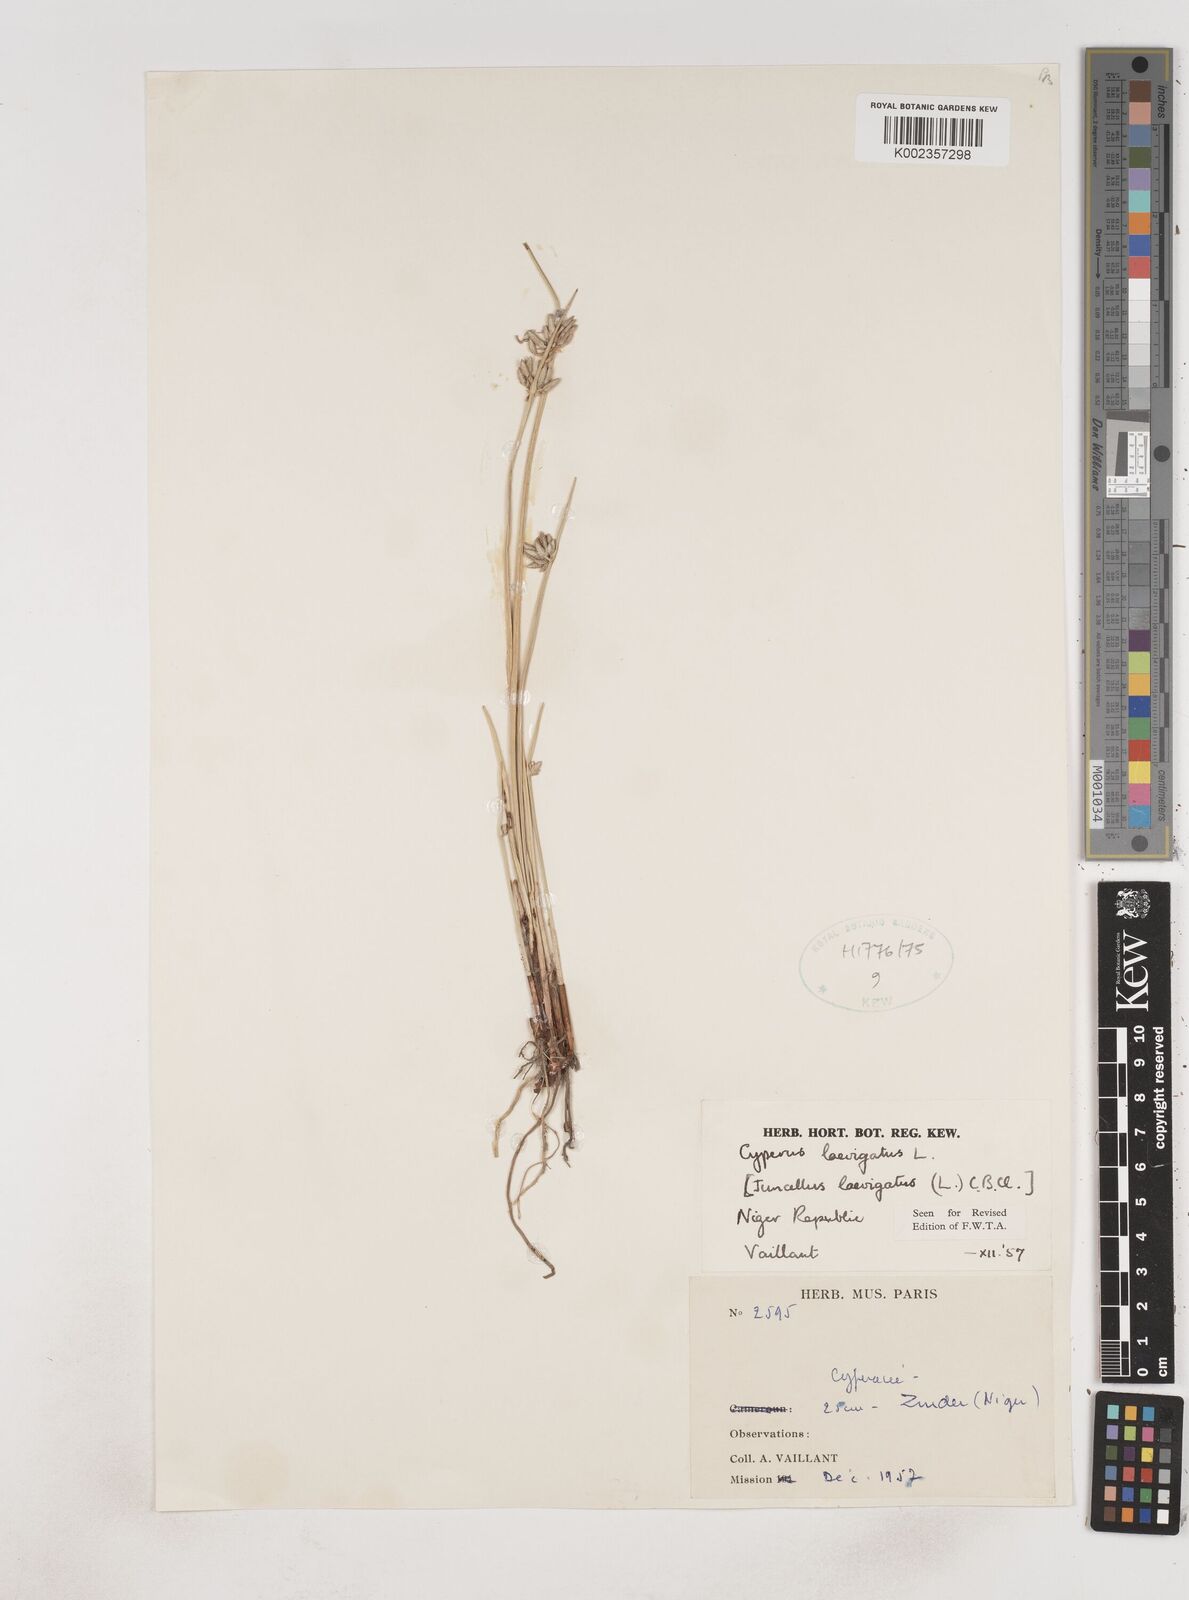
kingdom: Plantae
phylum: Tracheophyta
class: Liliopsida
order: Poales
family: Cyperaceae
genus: Cyperus
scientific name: Cyperus laevigatus
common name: Smooth flat sedge
